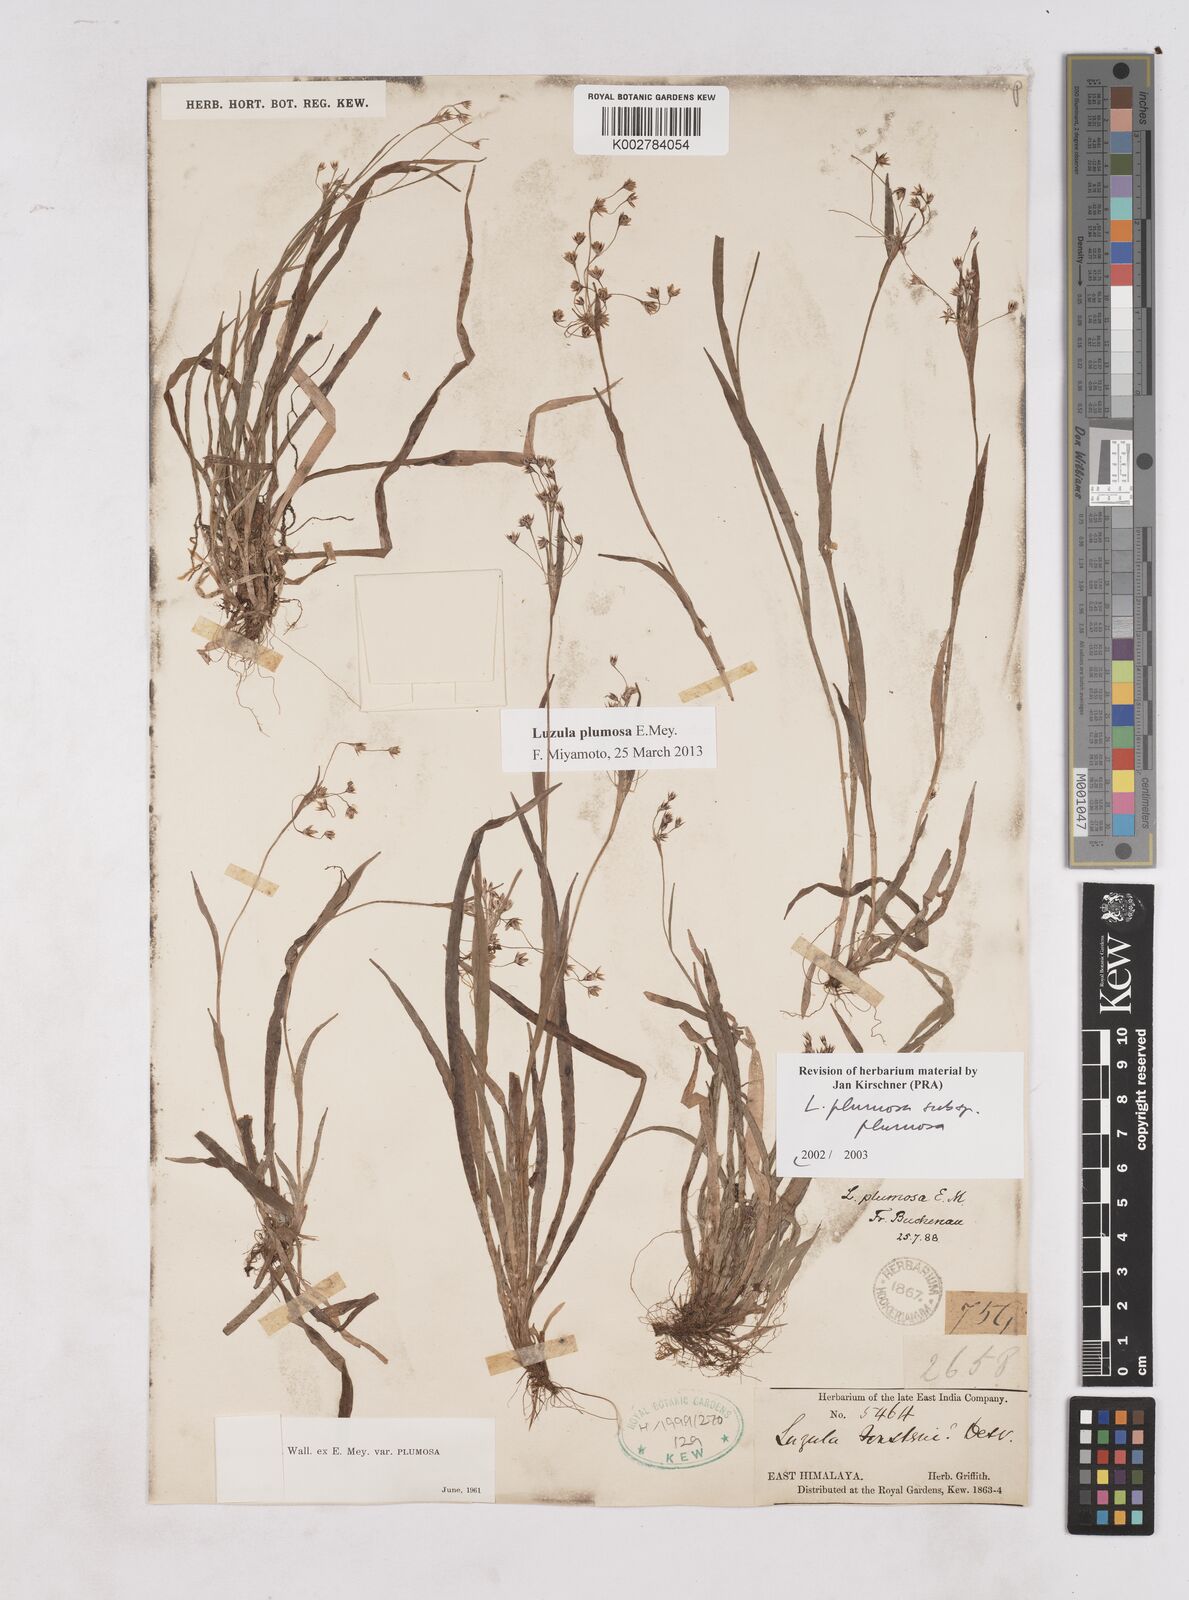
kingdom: Plantae
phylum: Tracheophyta
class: Liliopsida
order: Poales
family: Juncaceae
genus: Luzula
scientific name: Luzula plumosa
